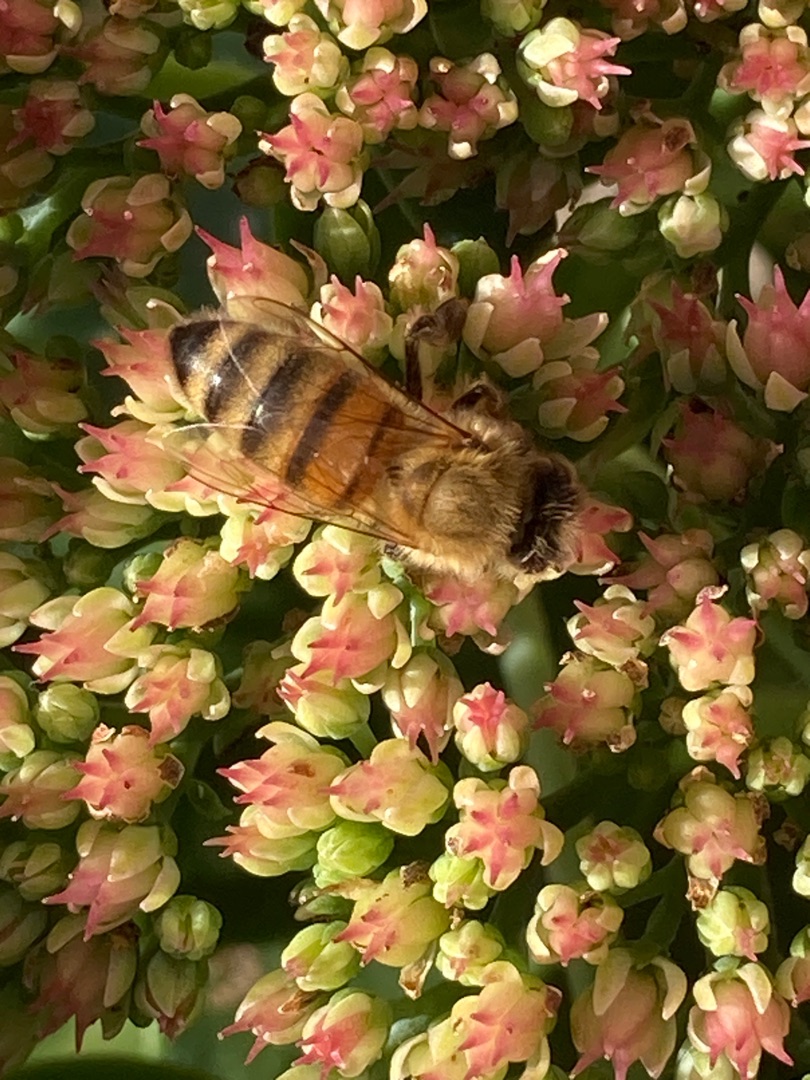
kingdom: Animalia
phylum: Arthropoda
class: Insecta
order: Hymenoptera
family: Apidae
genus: Apis
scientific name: Apis mellifera
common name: Honningbi
